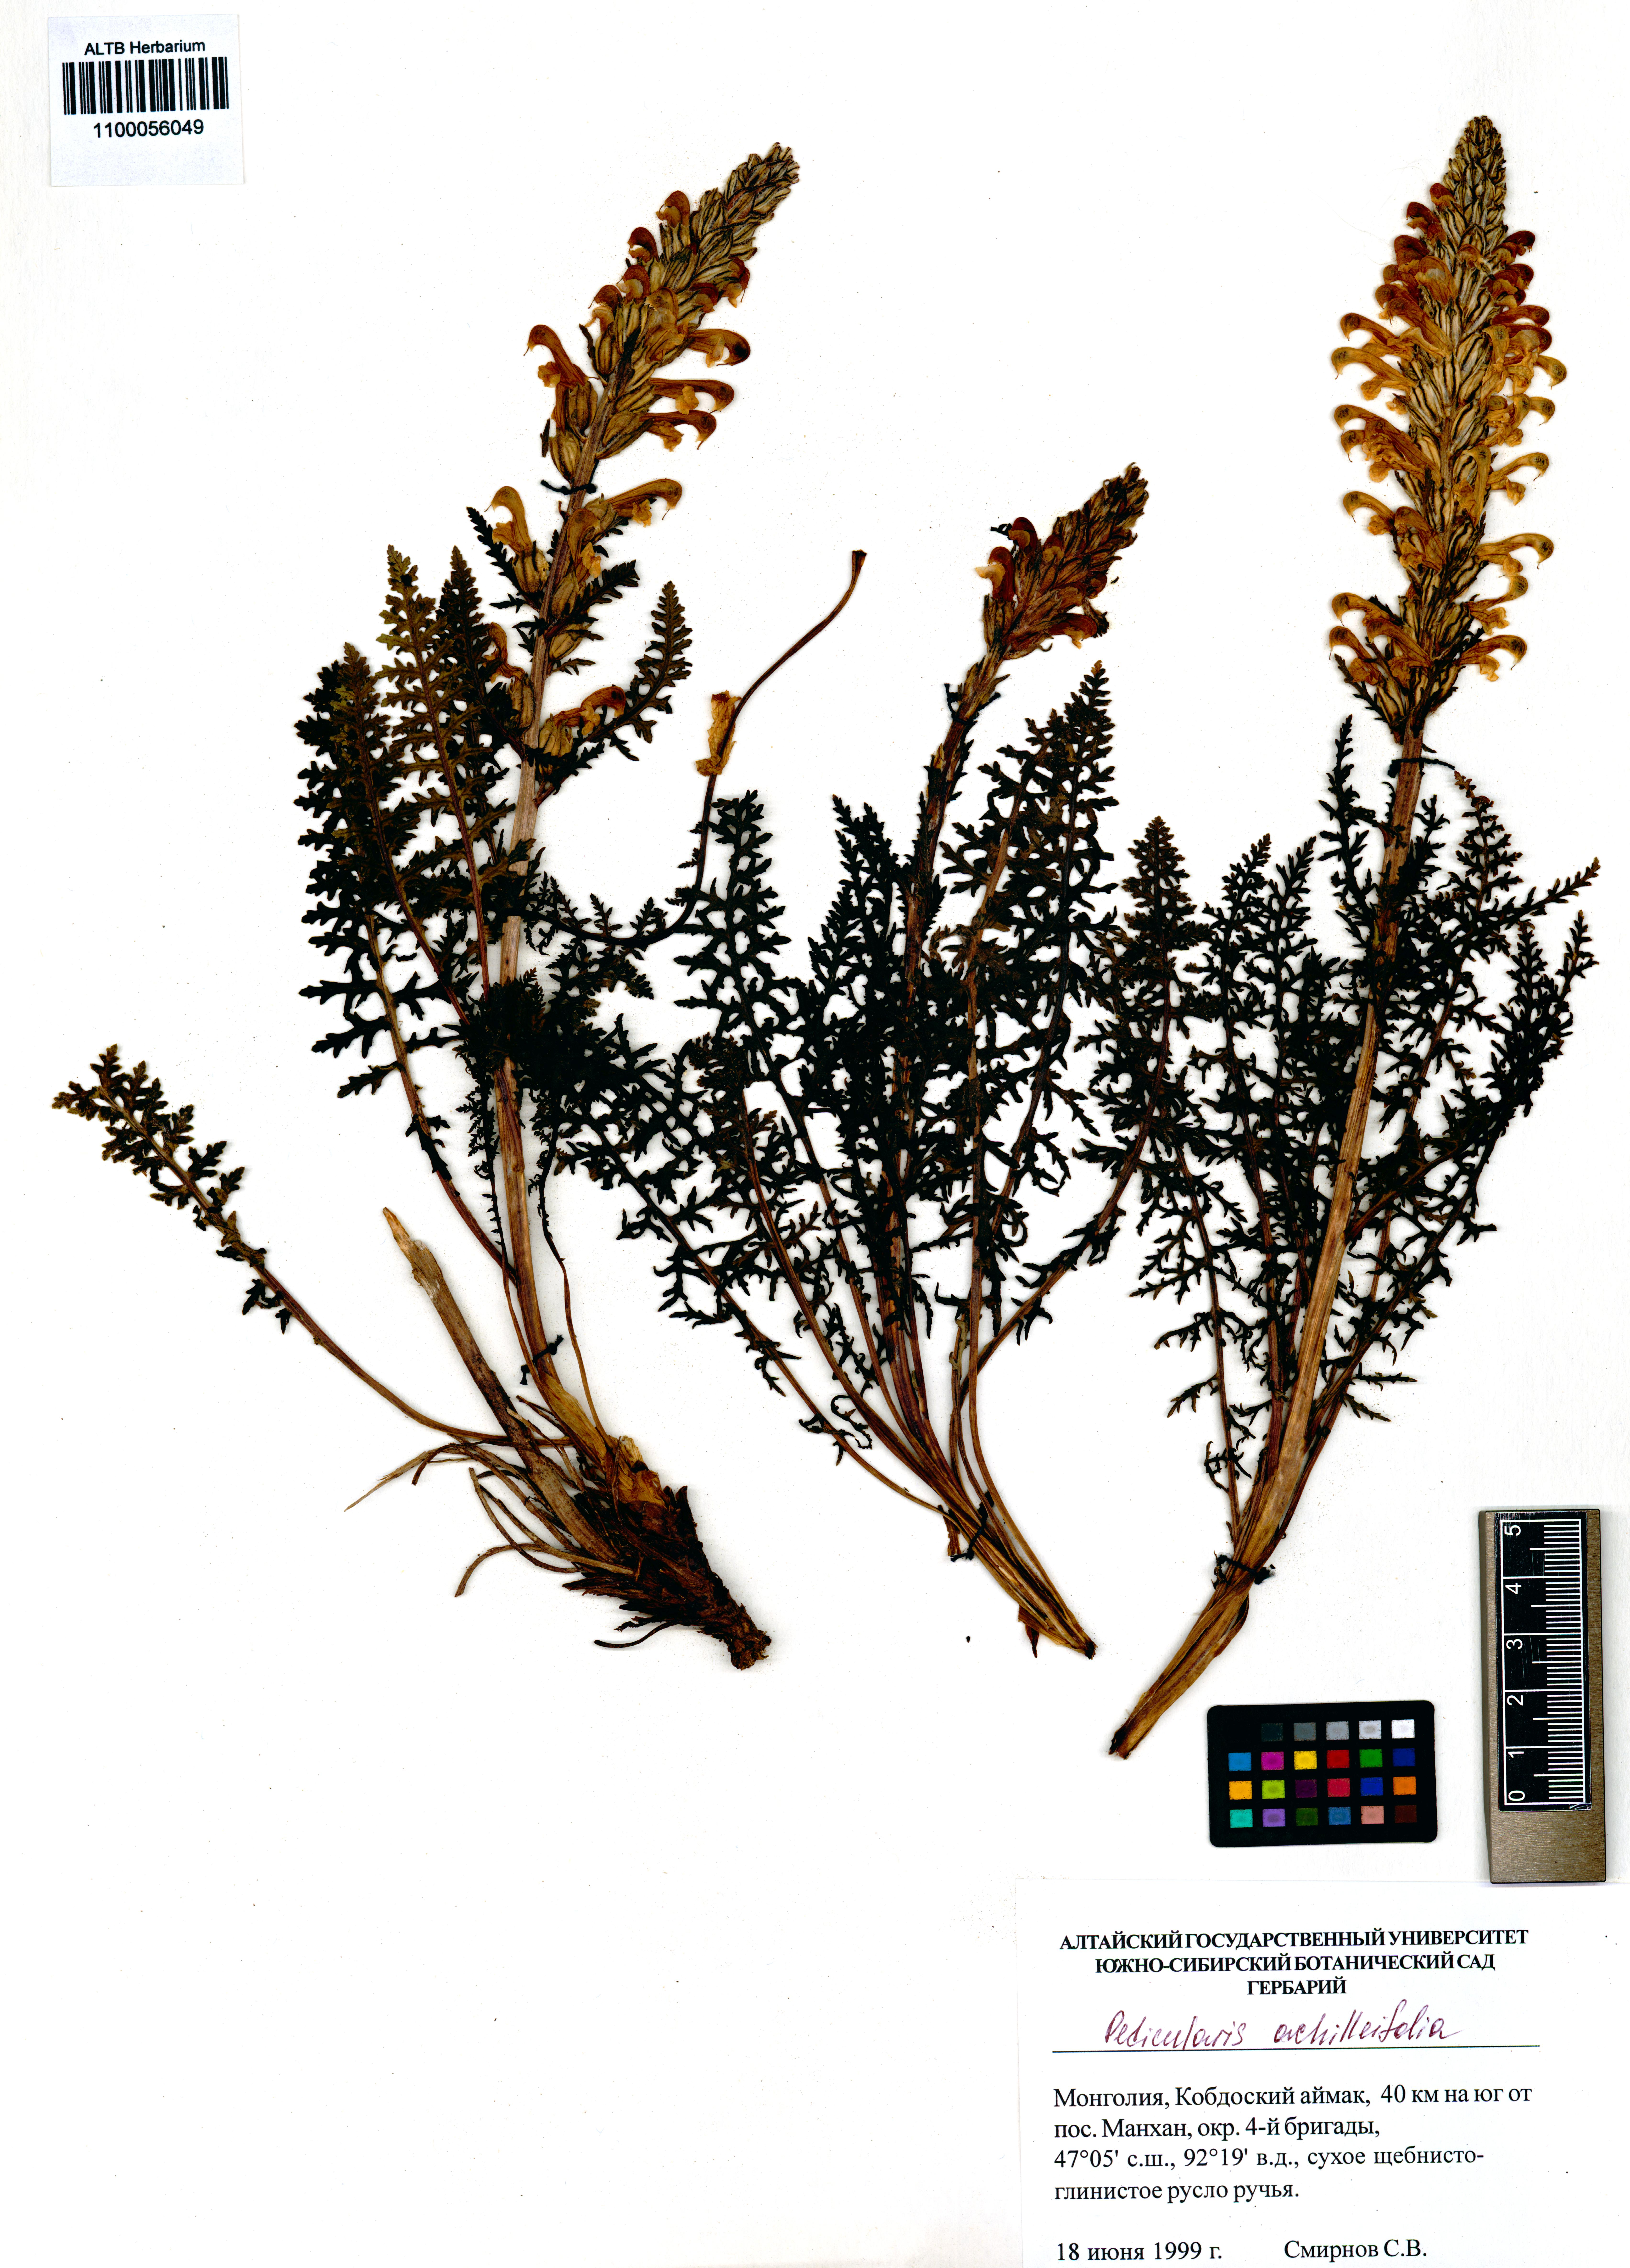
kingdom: Plantae
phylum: Tracheophyta
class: Magnoliopsida
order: Lamiales
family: Orobanchaceae
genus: Pedicularis
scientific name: Pedicularis achilleifolia
